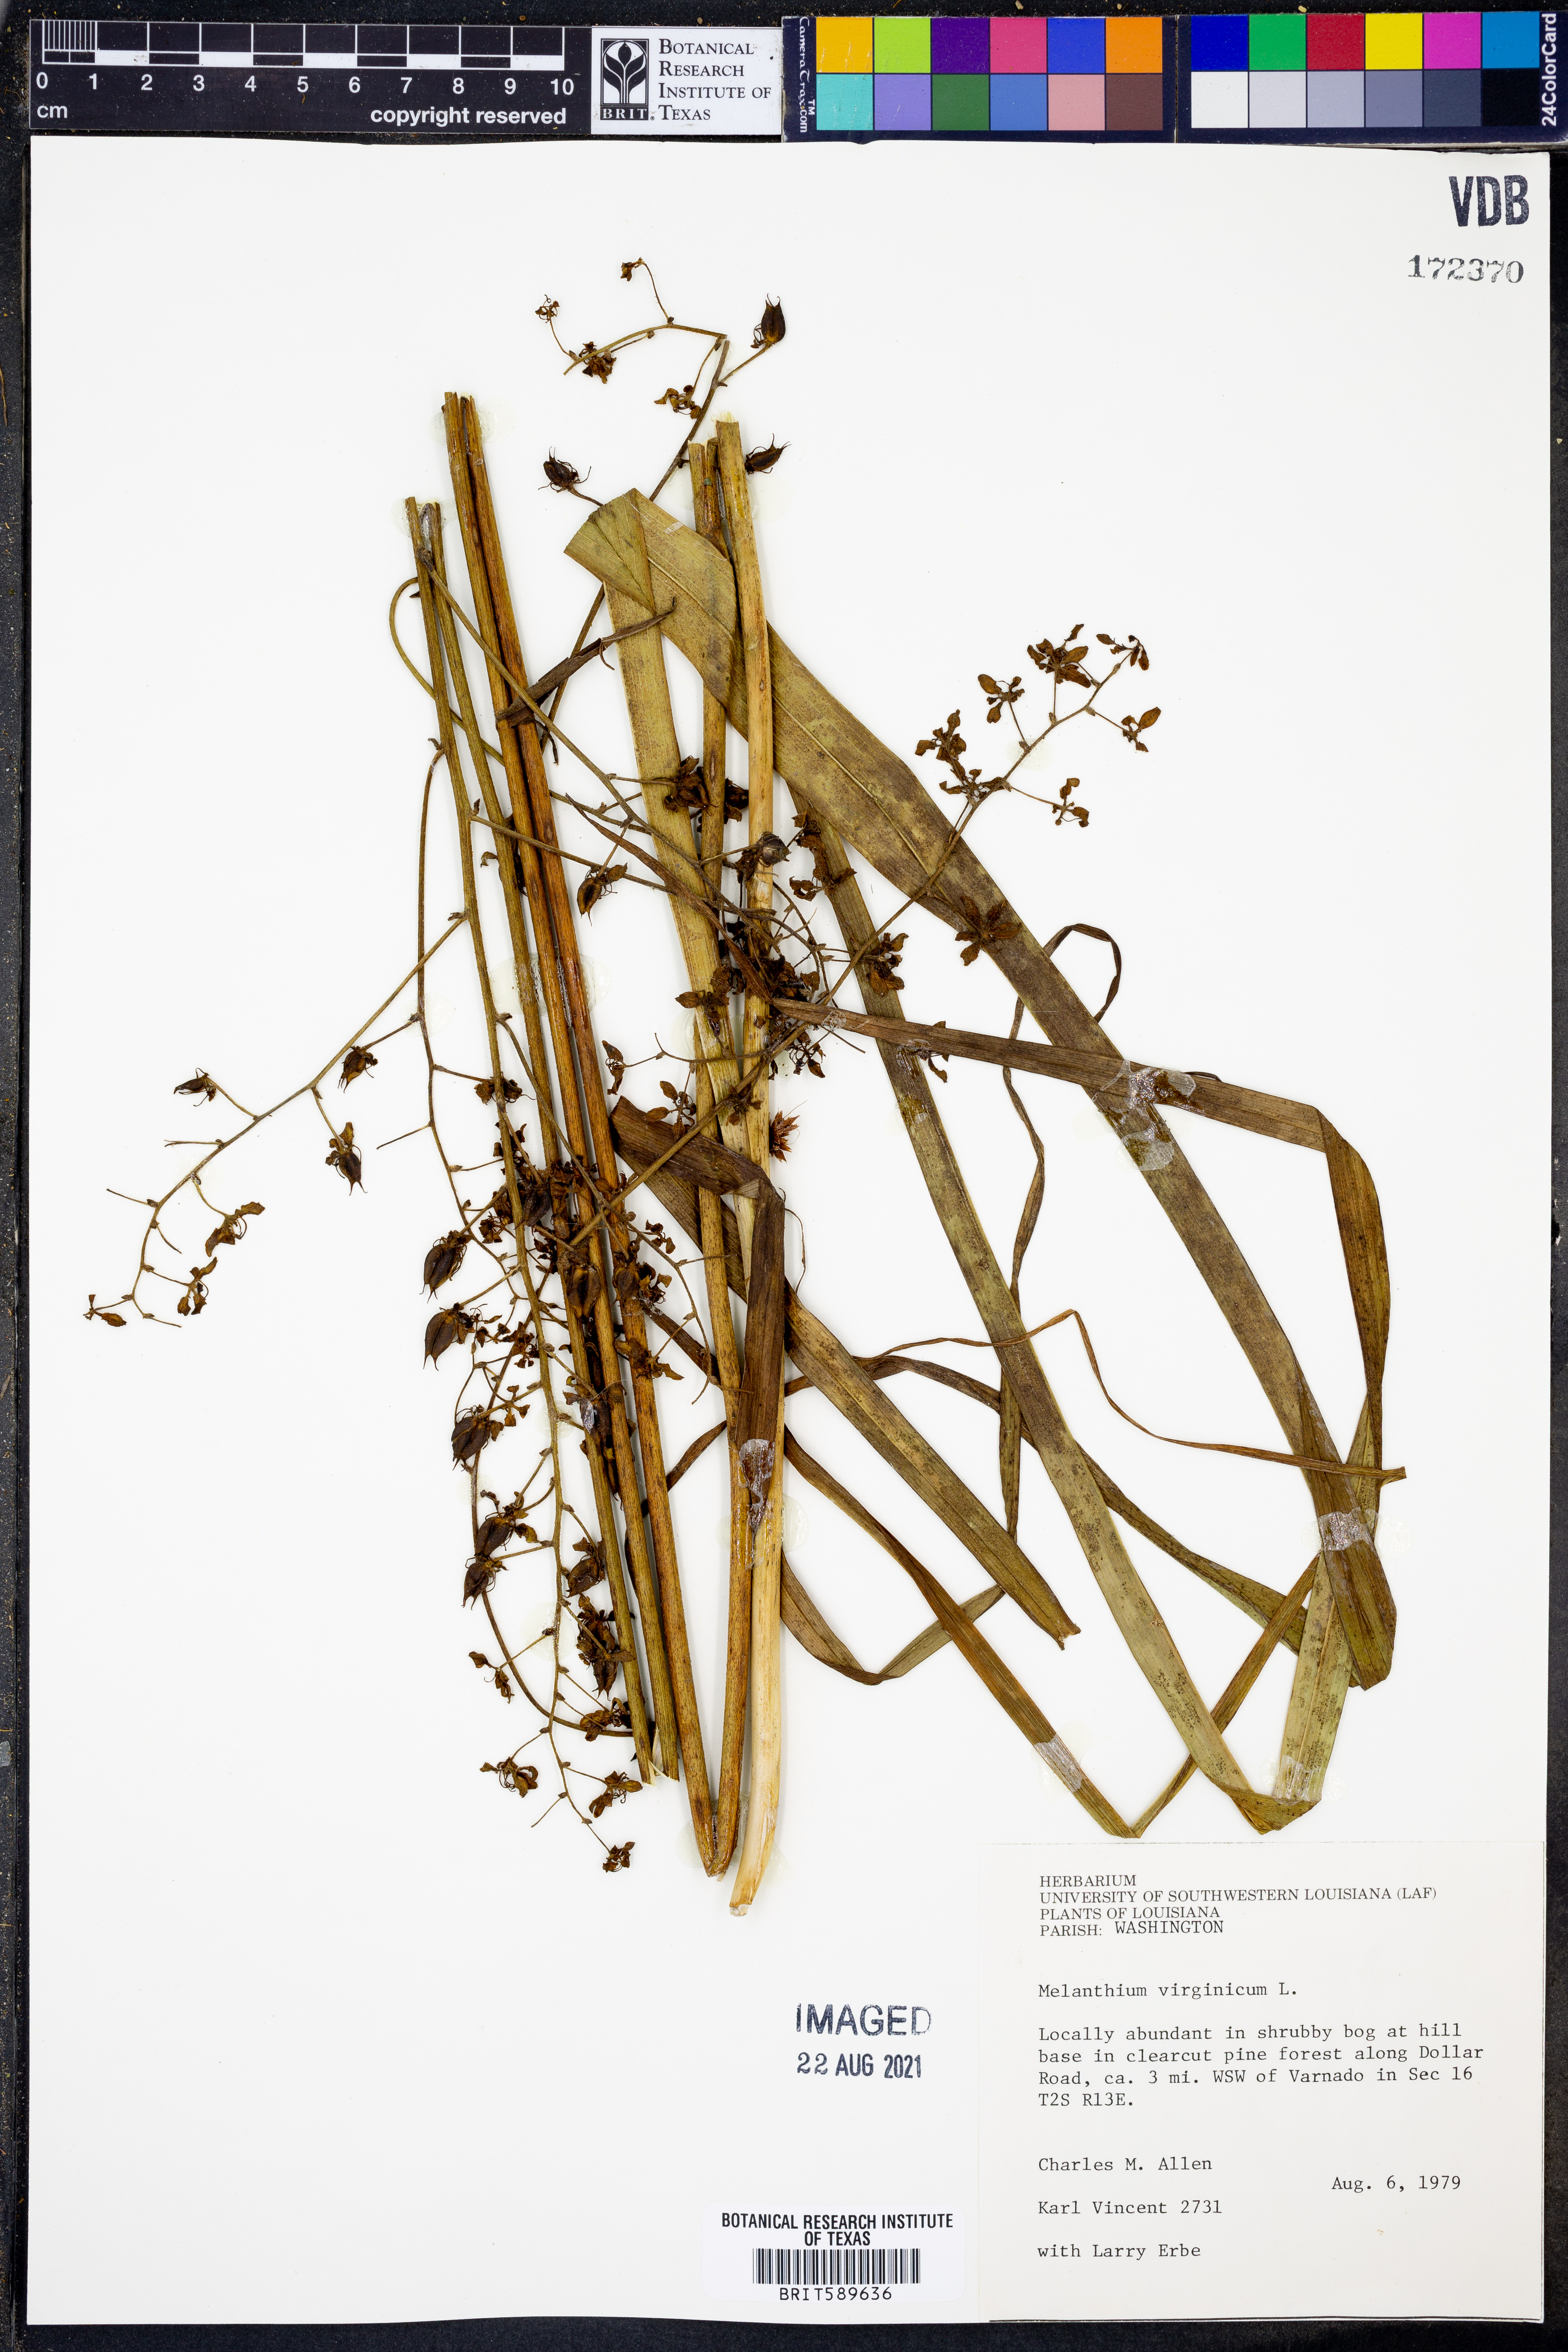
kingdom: Plantae
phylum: Tracheophyta
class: Liliopsida
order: Liliales
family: Melanthiaceae
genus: Melanthium
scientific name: Melanthium virginicum
